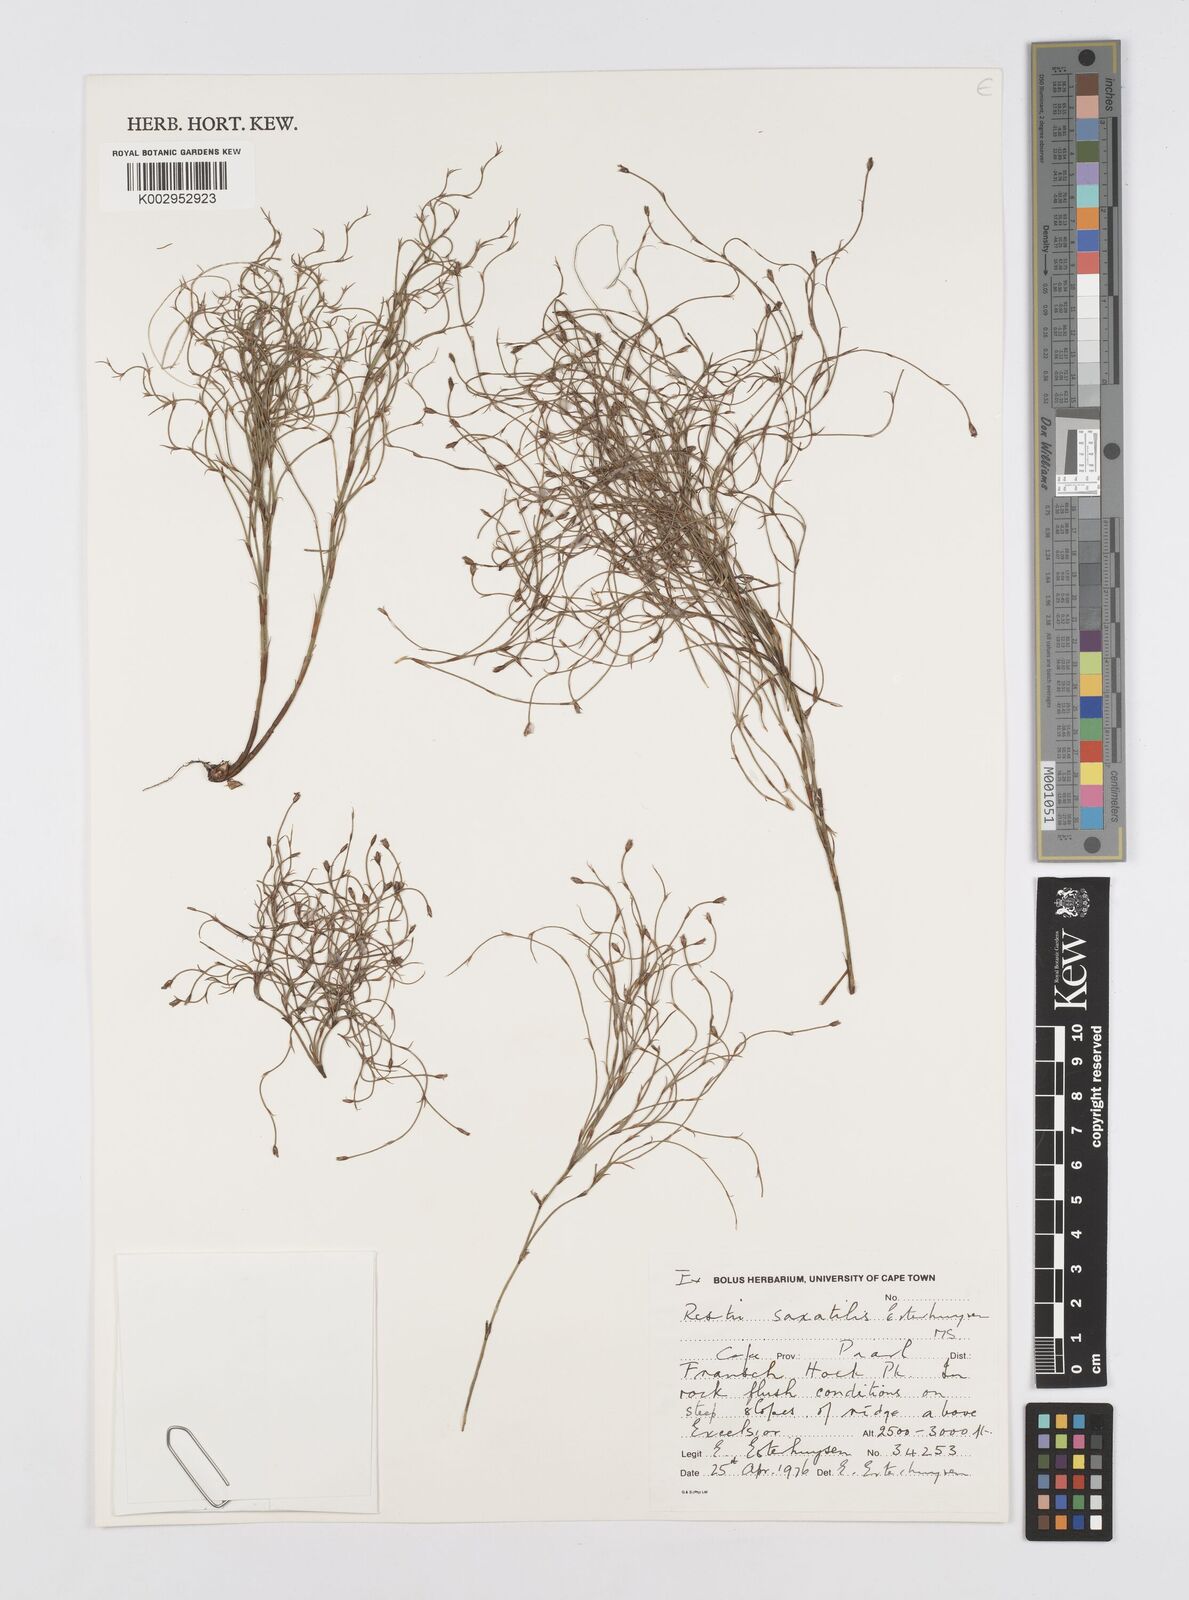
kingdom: Plantae
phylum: Tracheophyta
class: Liliopsida
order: Poales
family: Restionaceae
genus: Restio
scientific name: Restio saxatilis
